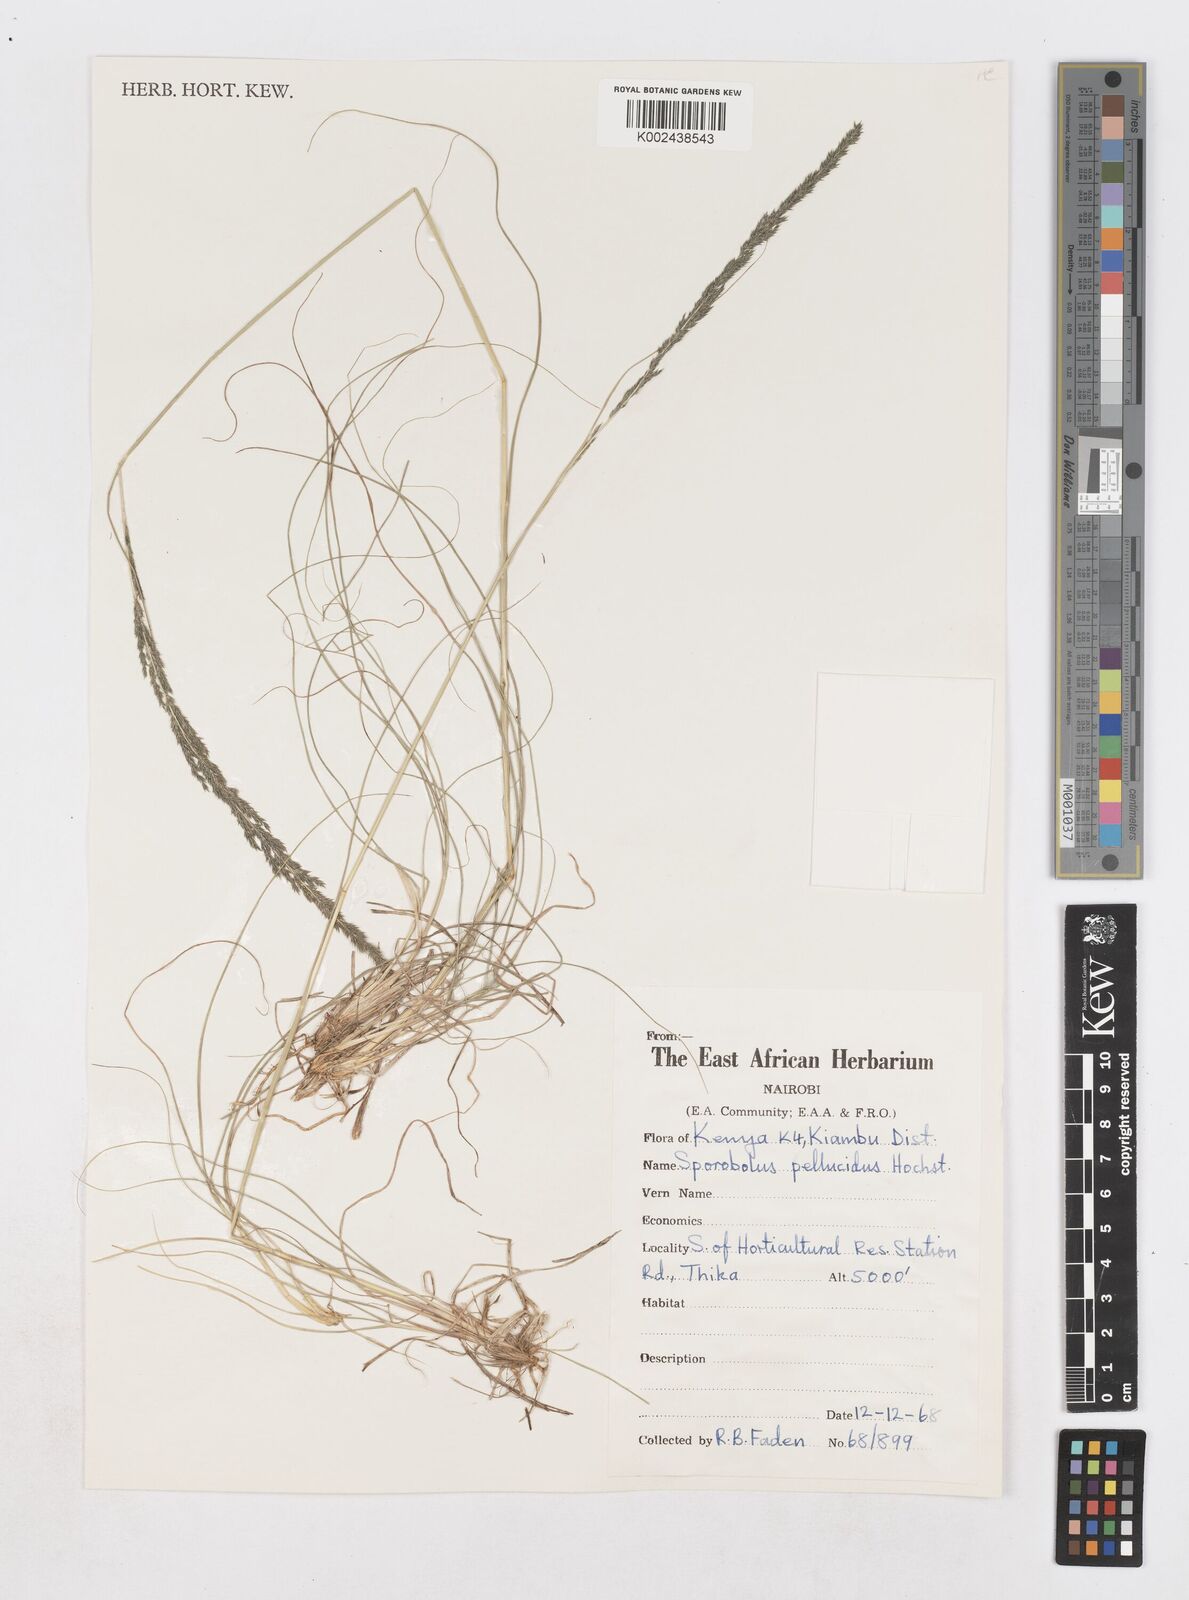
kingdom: Plantae
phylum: Tracheophyta
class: Liliopsida
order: Poales
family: Poaceae
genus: Sporobolus
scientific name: Sporobolus pellucidus
